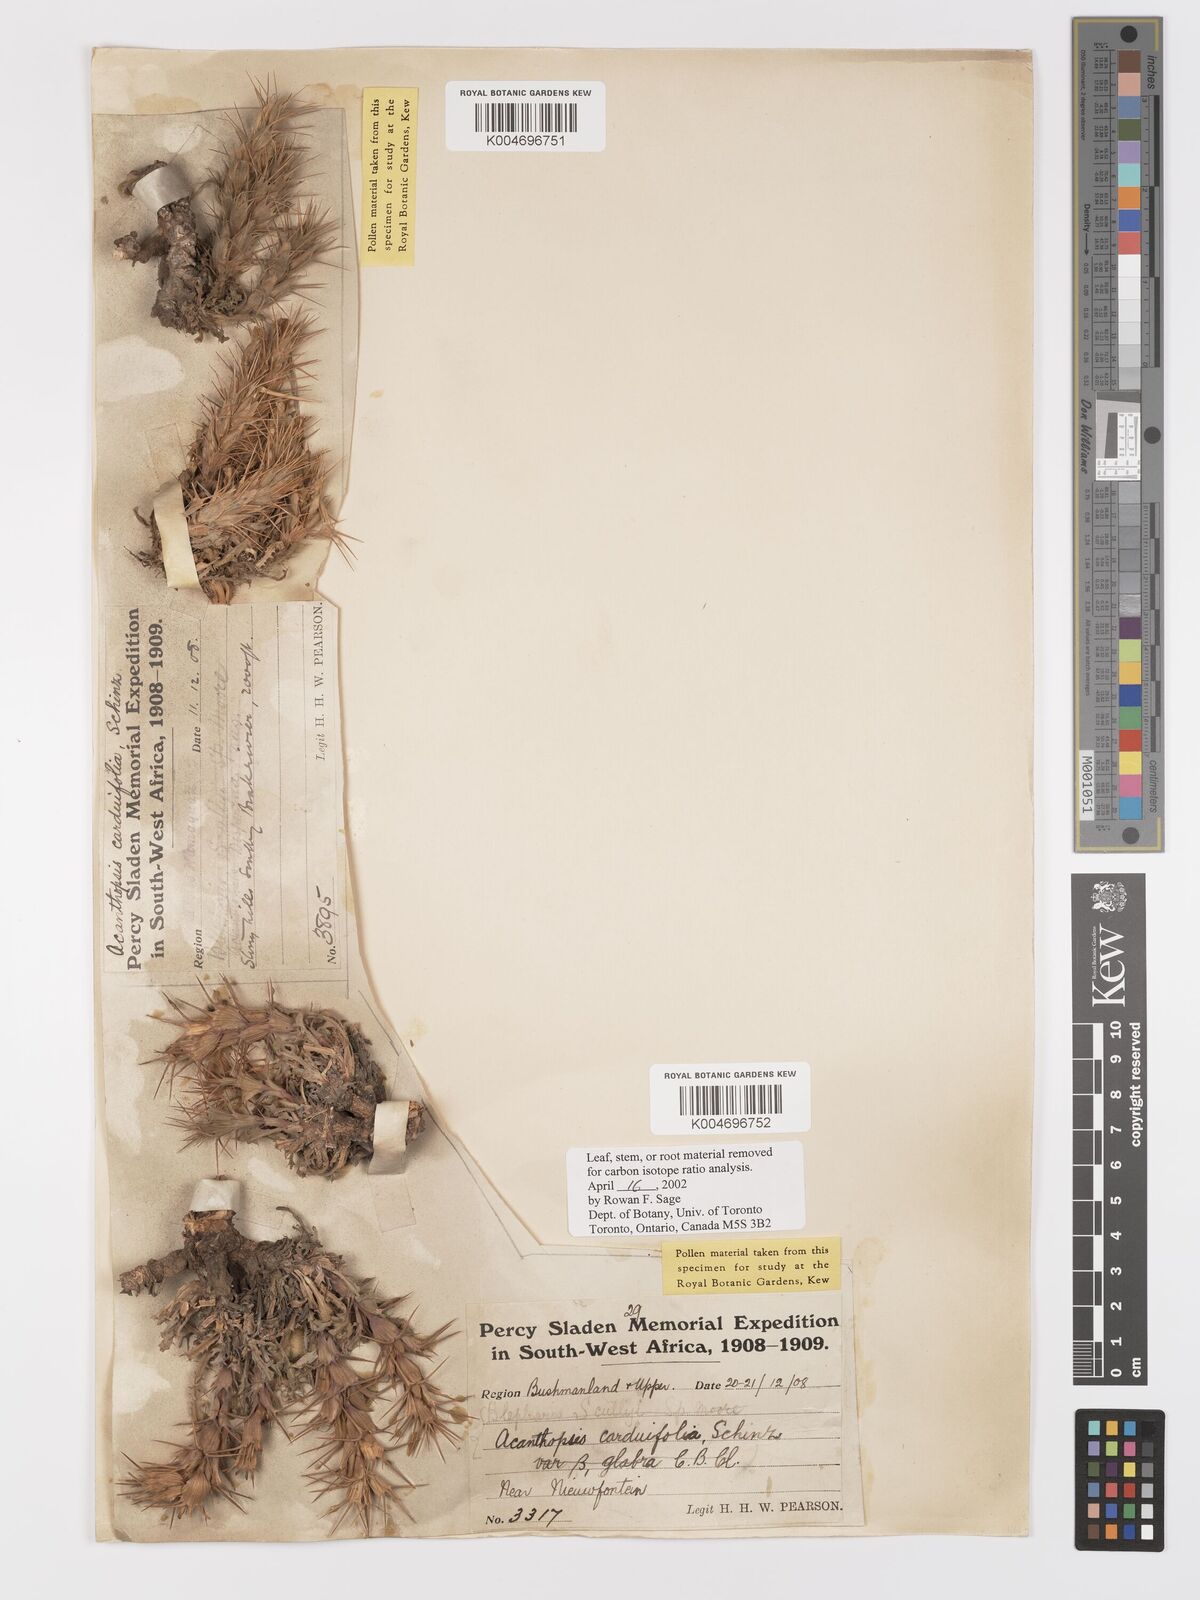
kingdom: Plantae
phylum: Tracheophyta
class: Magnoliopsida
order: Lamiales
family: Acanthaceae
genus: Acanthopsis
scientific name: Acanthopsis carduifolia
